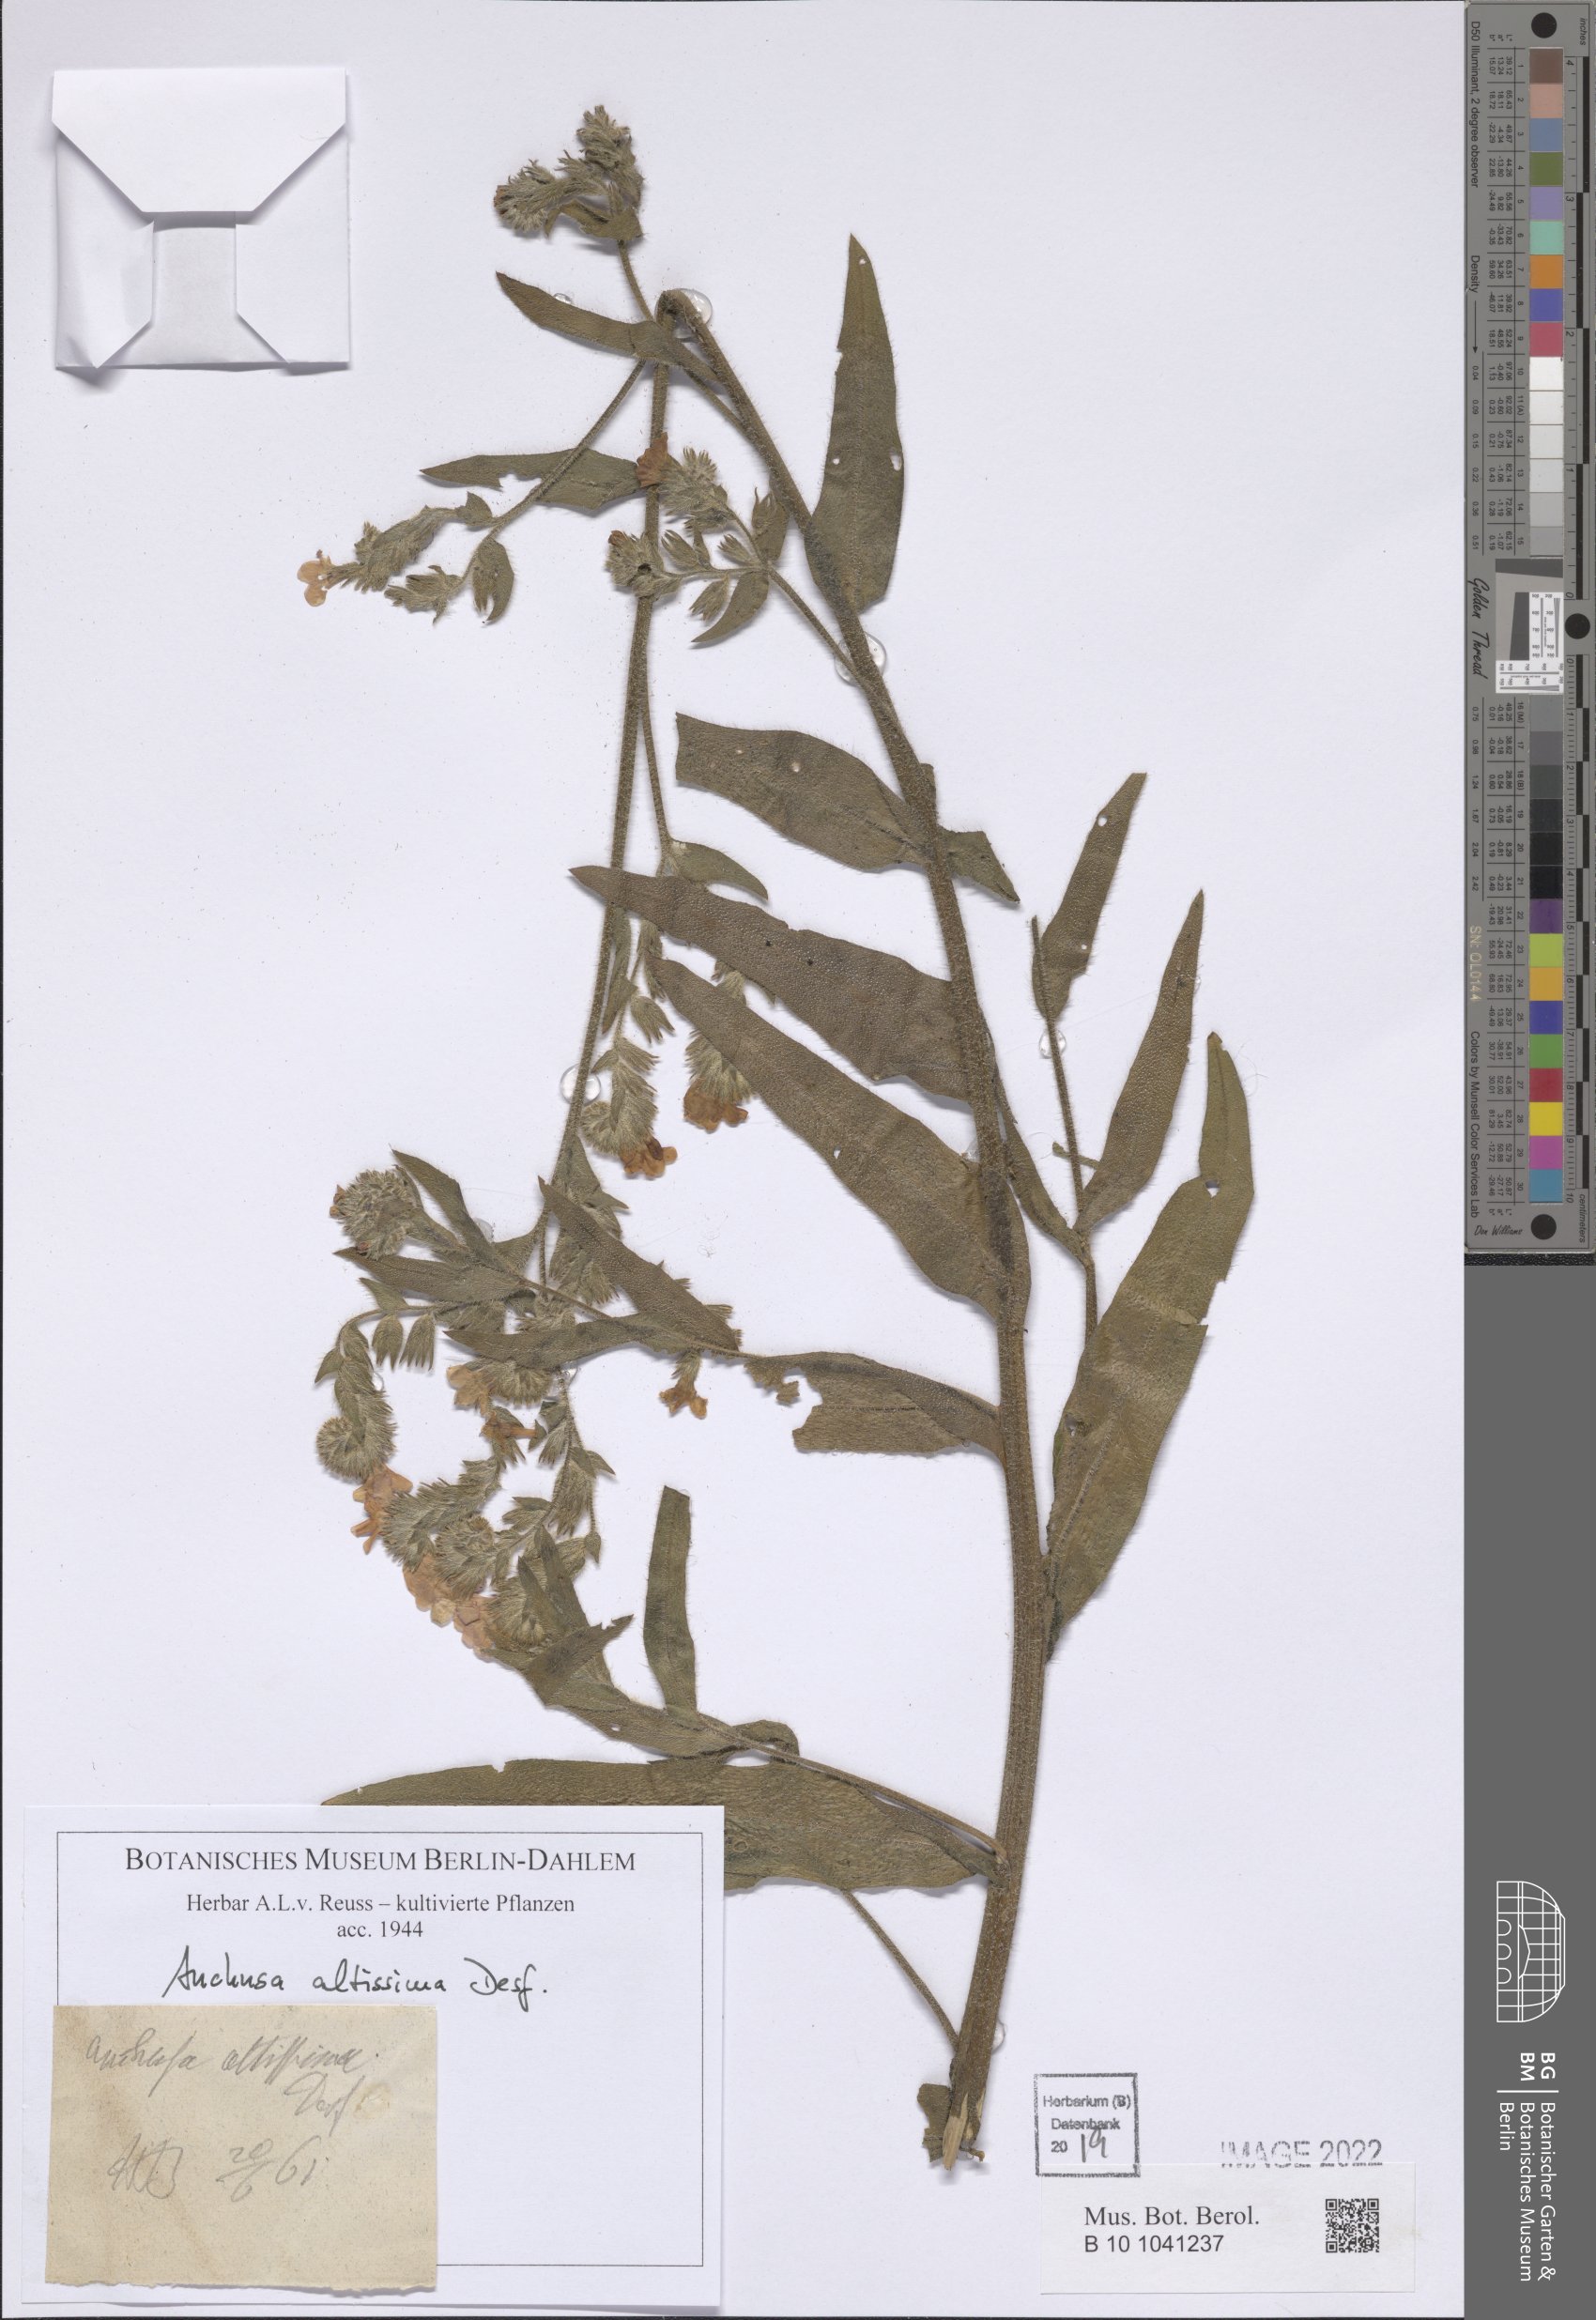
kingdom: Plantae
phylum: Tracheophyta
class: Magnoliopsida
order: Boraginales
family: Boraginaceae
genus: Anchusa
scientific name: Anchusa altissima
